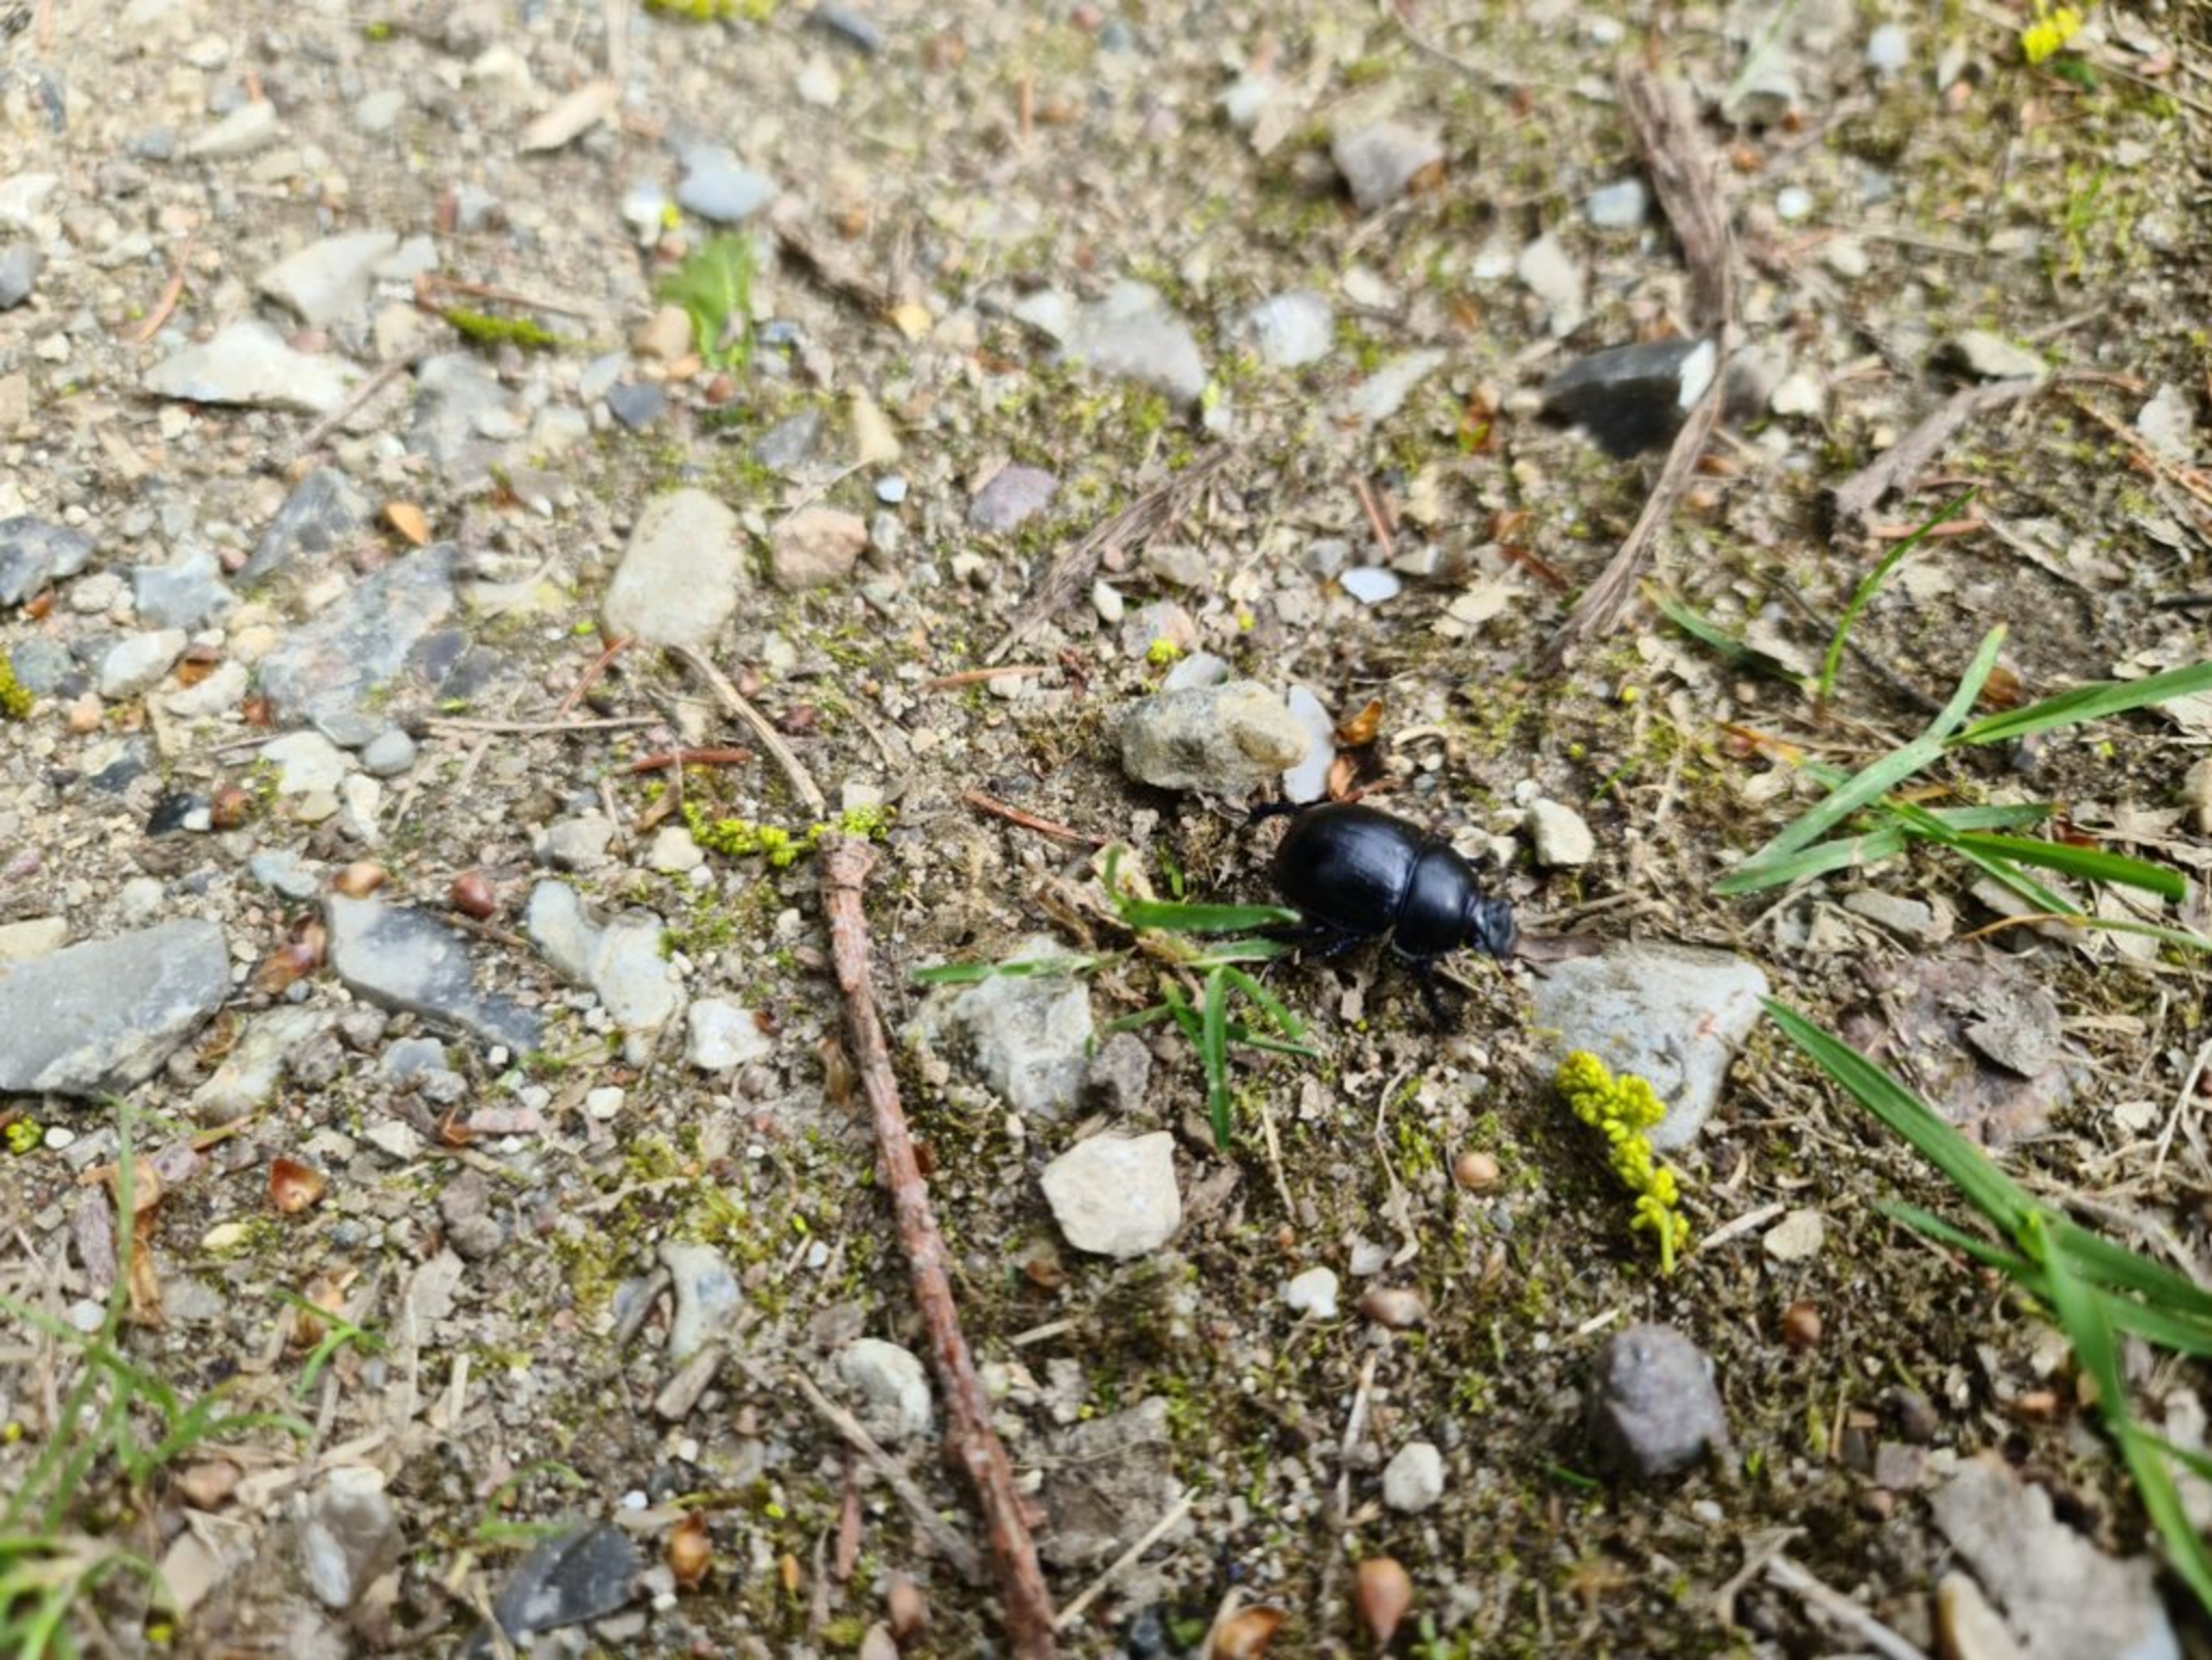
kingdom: Animalia
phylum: Arthropoda
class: Insecta
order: Coleoptera
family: Geotrupidae
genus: Anoplotrupes
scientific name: Anoplotrupes stercorosus
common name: Skovskarnbasse
